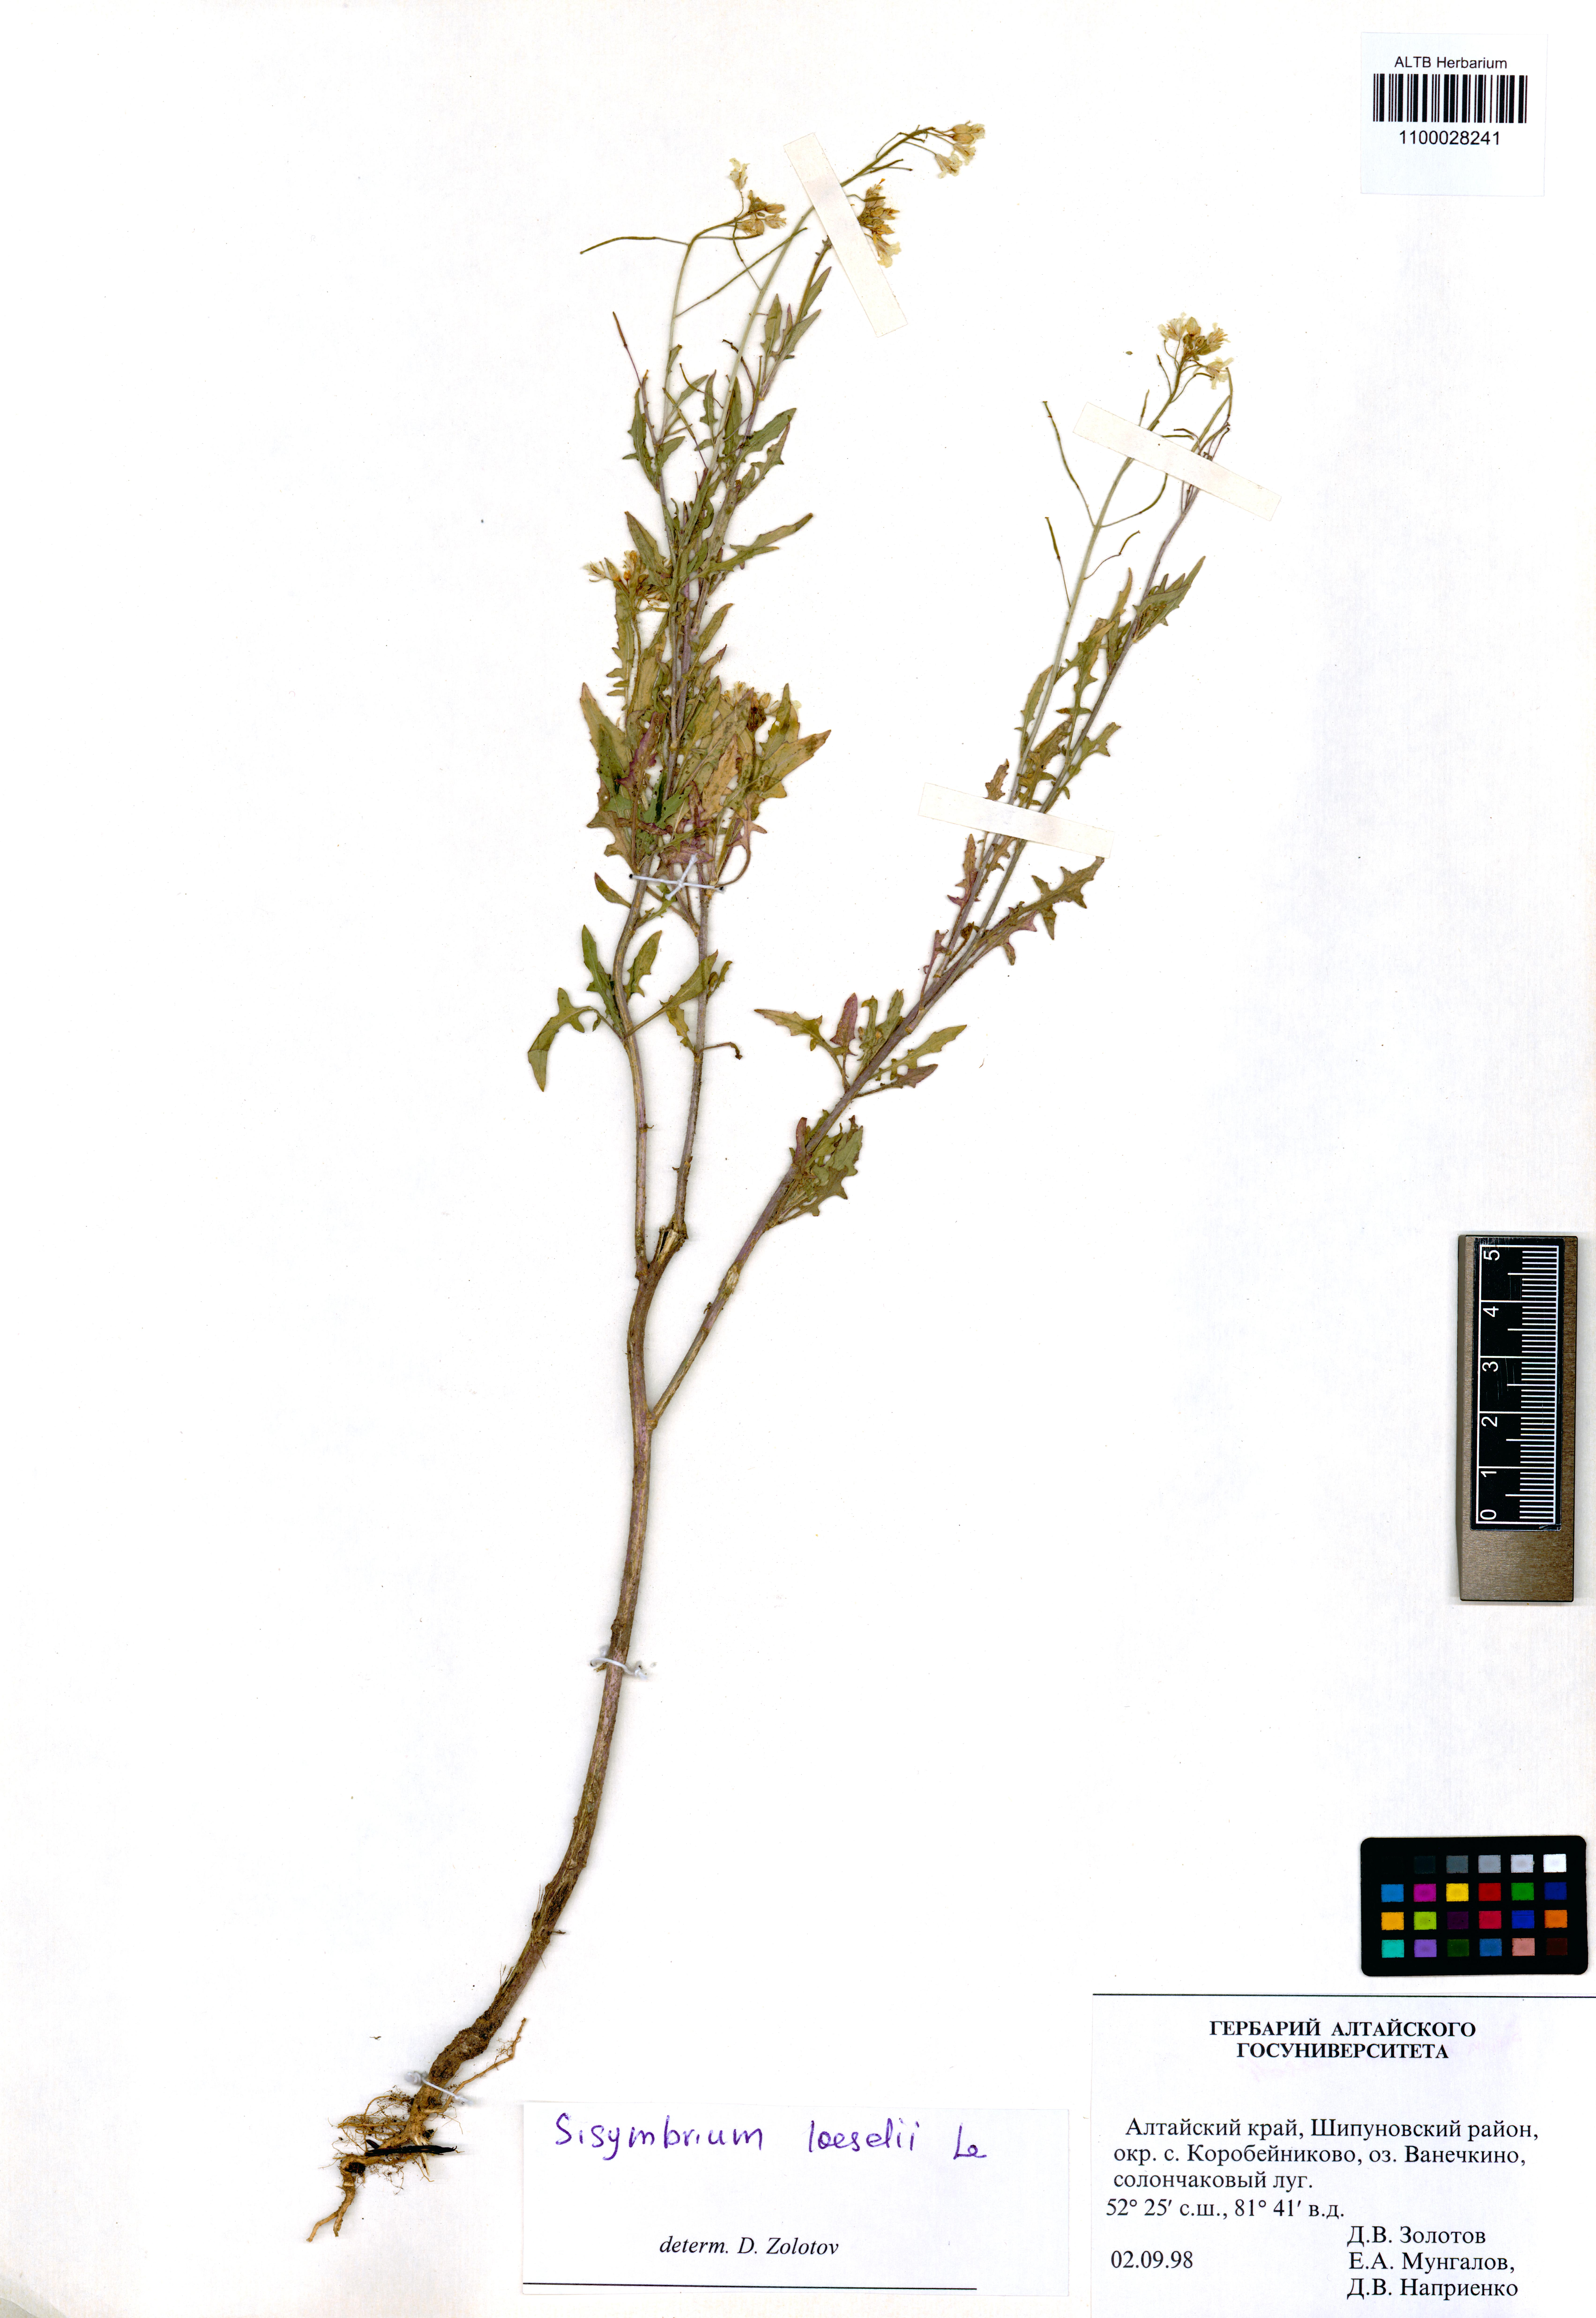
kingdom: Plantae
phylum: Tracheophyta
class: Magnoliopsida
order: Brassicales
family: Brassicaceae
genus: Sisymbrium
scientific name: Sisymbrium loeselii
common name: False london-rocket
